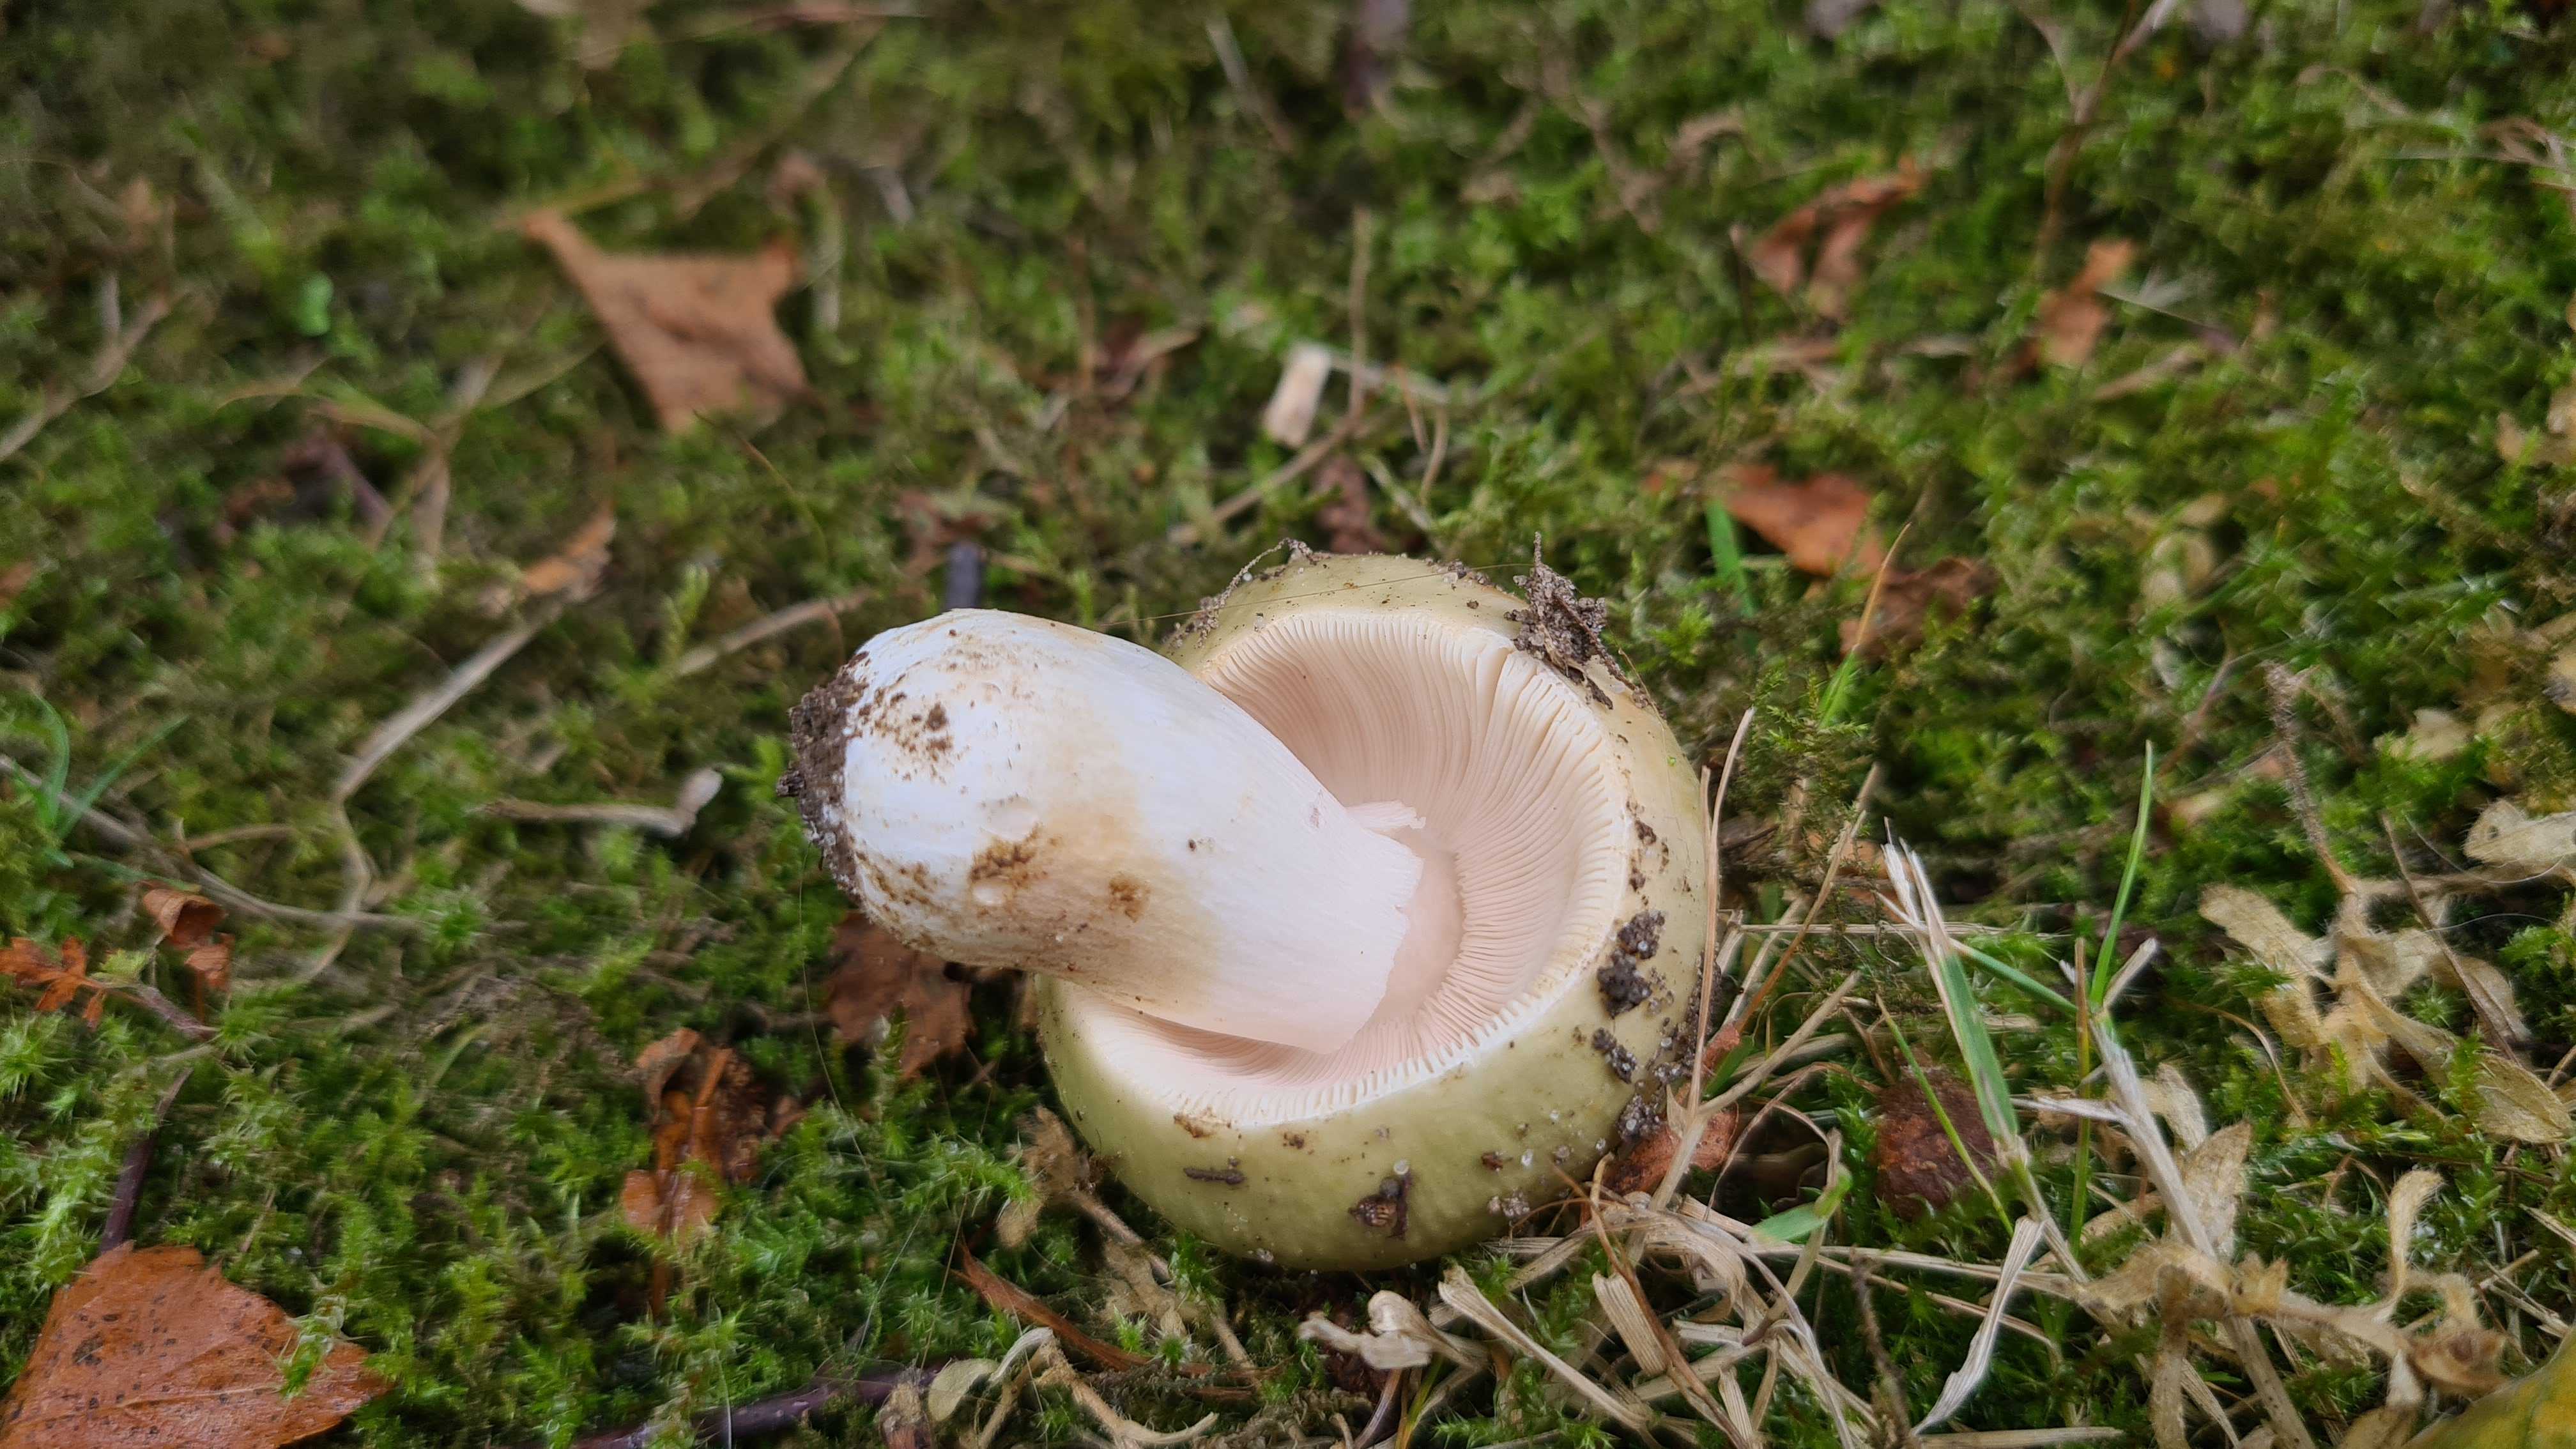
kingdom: Fungi
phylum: Basidiomycota
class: Agaricomycetes
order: Russulales
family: Russulaceae
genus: Russula
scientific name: Russula
